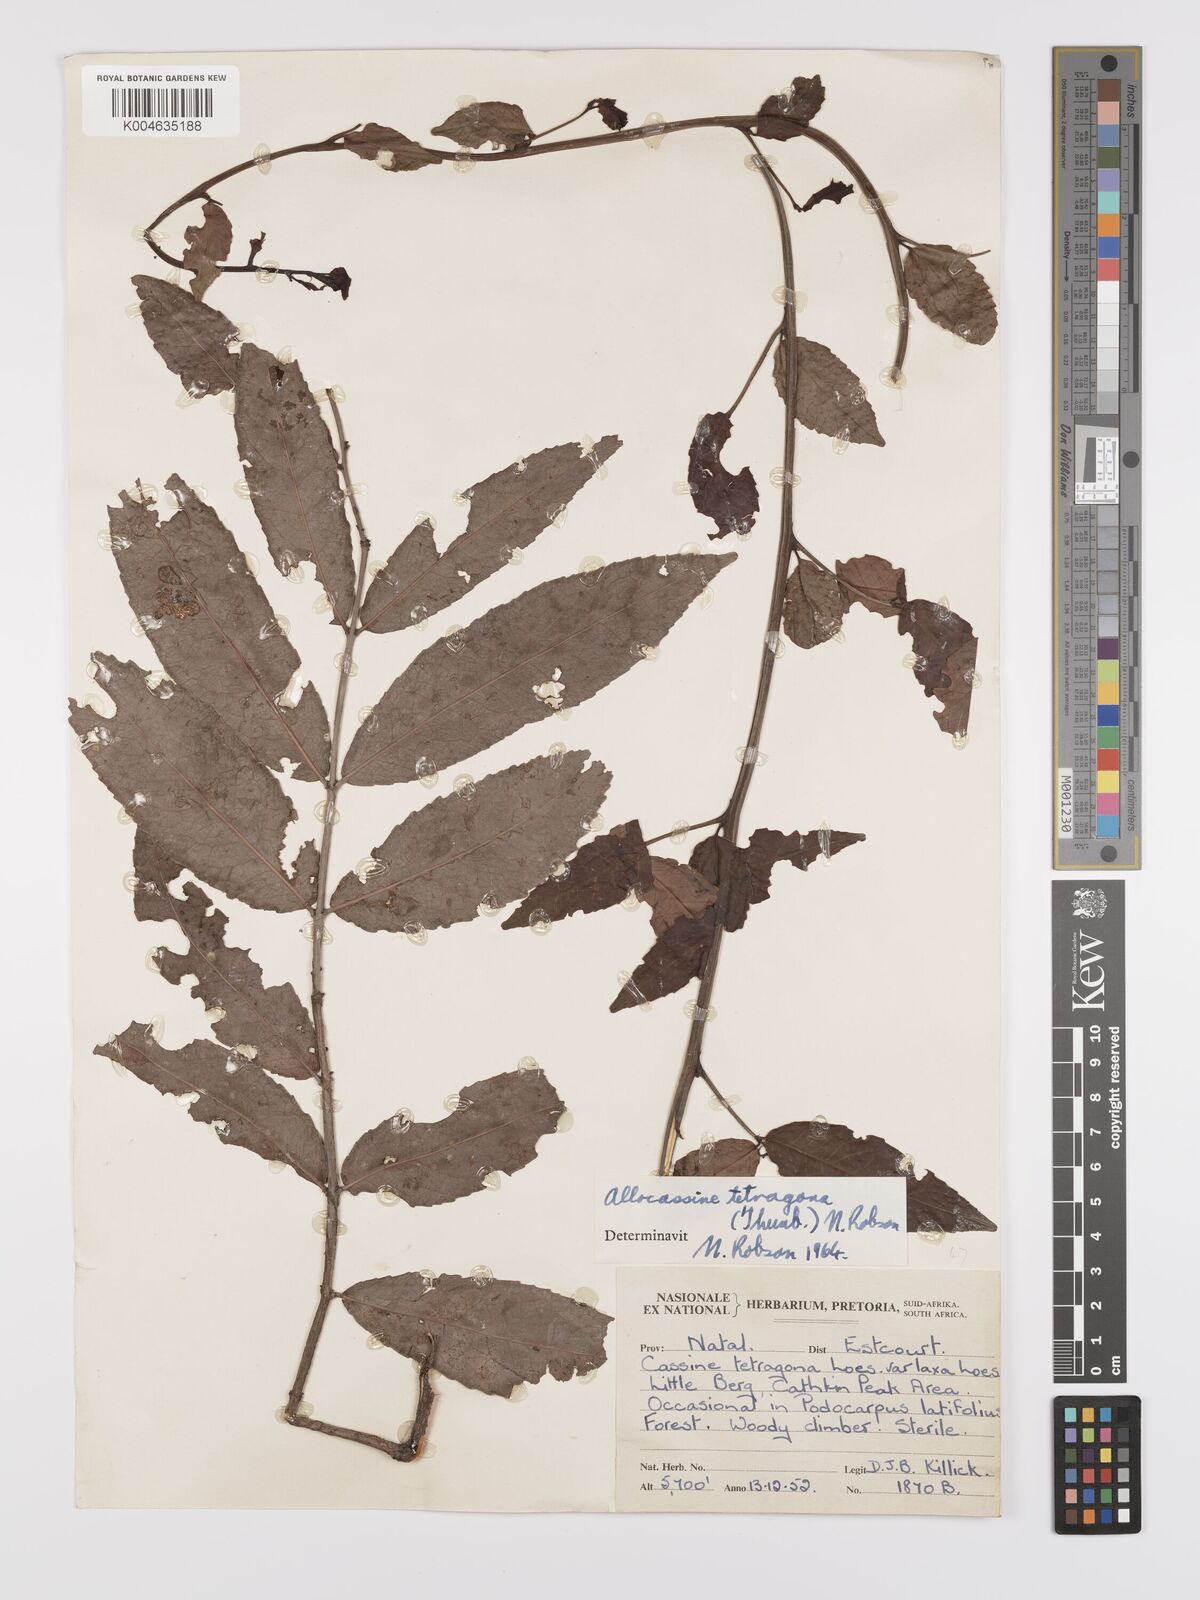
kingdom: Plantae
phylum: Tracheophyta
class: Magnoliopsida
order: Celastrales
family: Celastraceae
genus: Lauridia
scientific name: Lauridia tetragona
